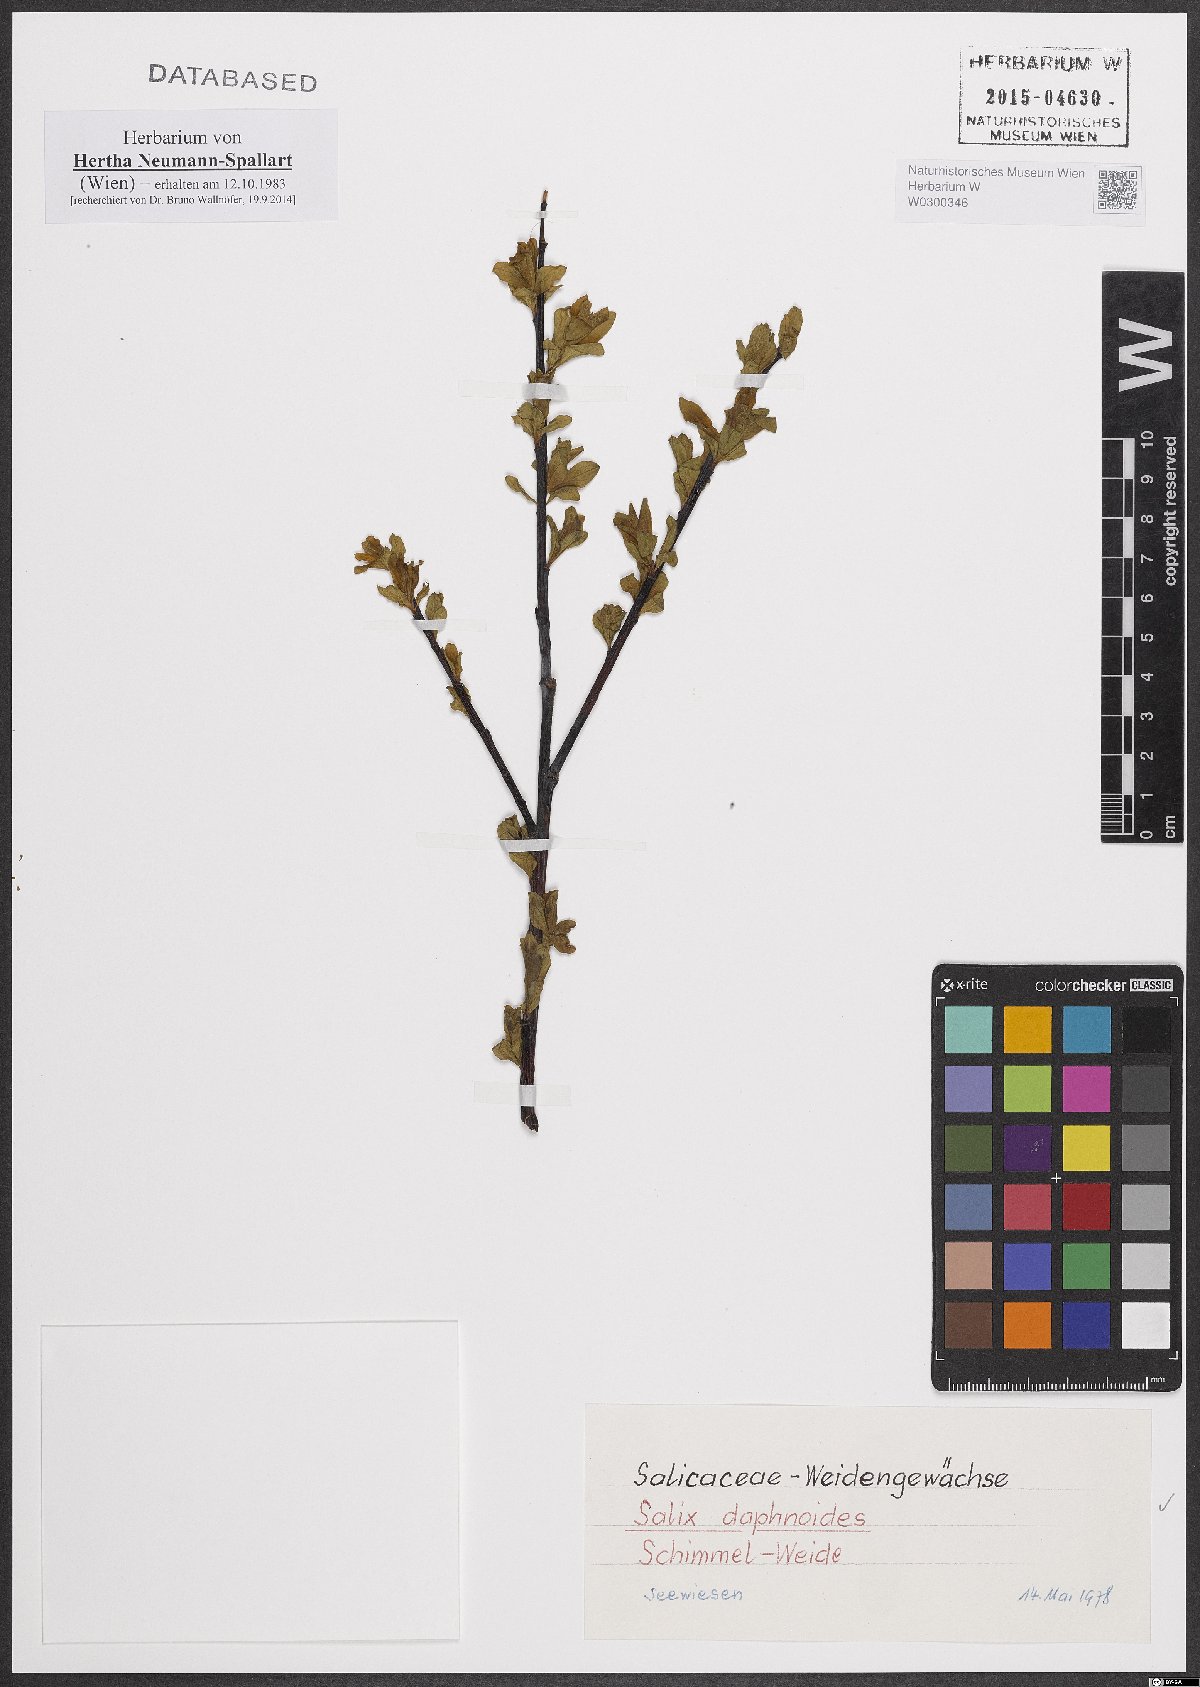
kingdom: Plantae
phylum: Tracheophyta
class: Magnoliopsida
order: Malpighiales
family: Salicaceae
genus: Salix
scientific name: Salix daphnoides
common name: European violet-willow
